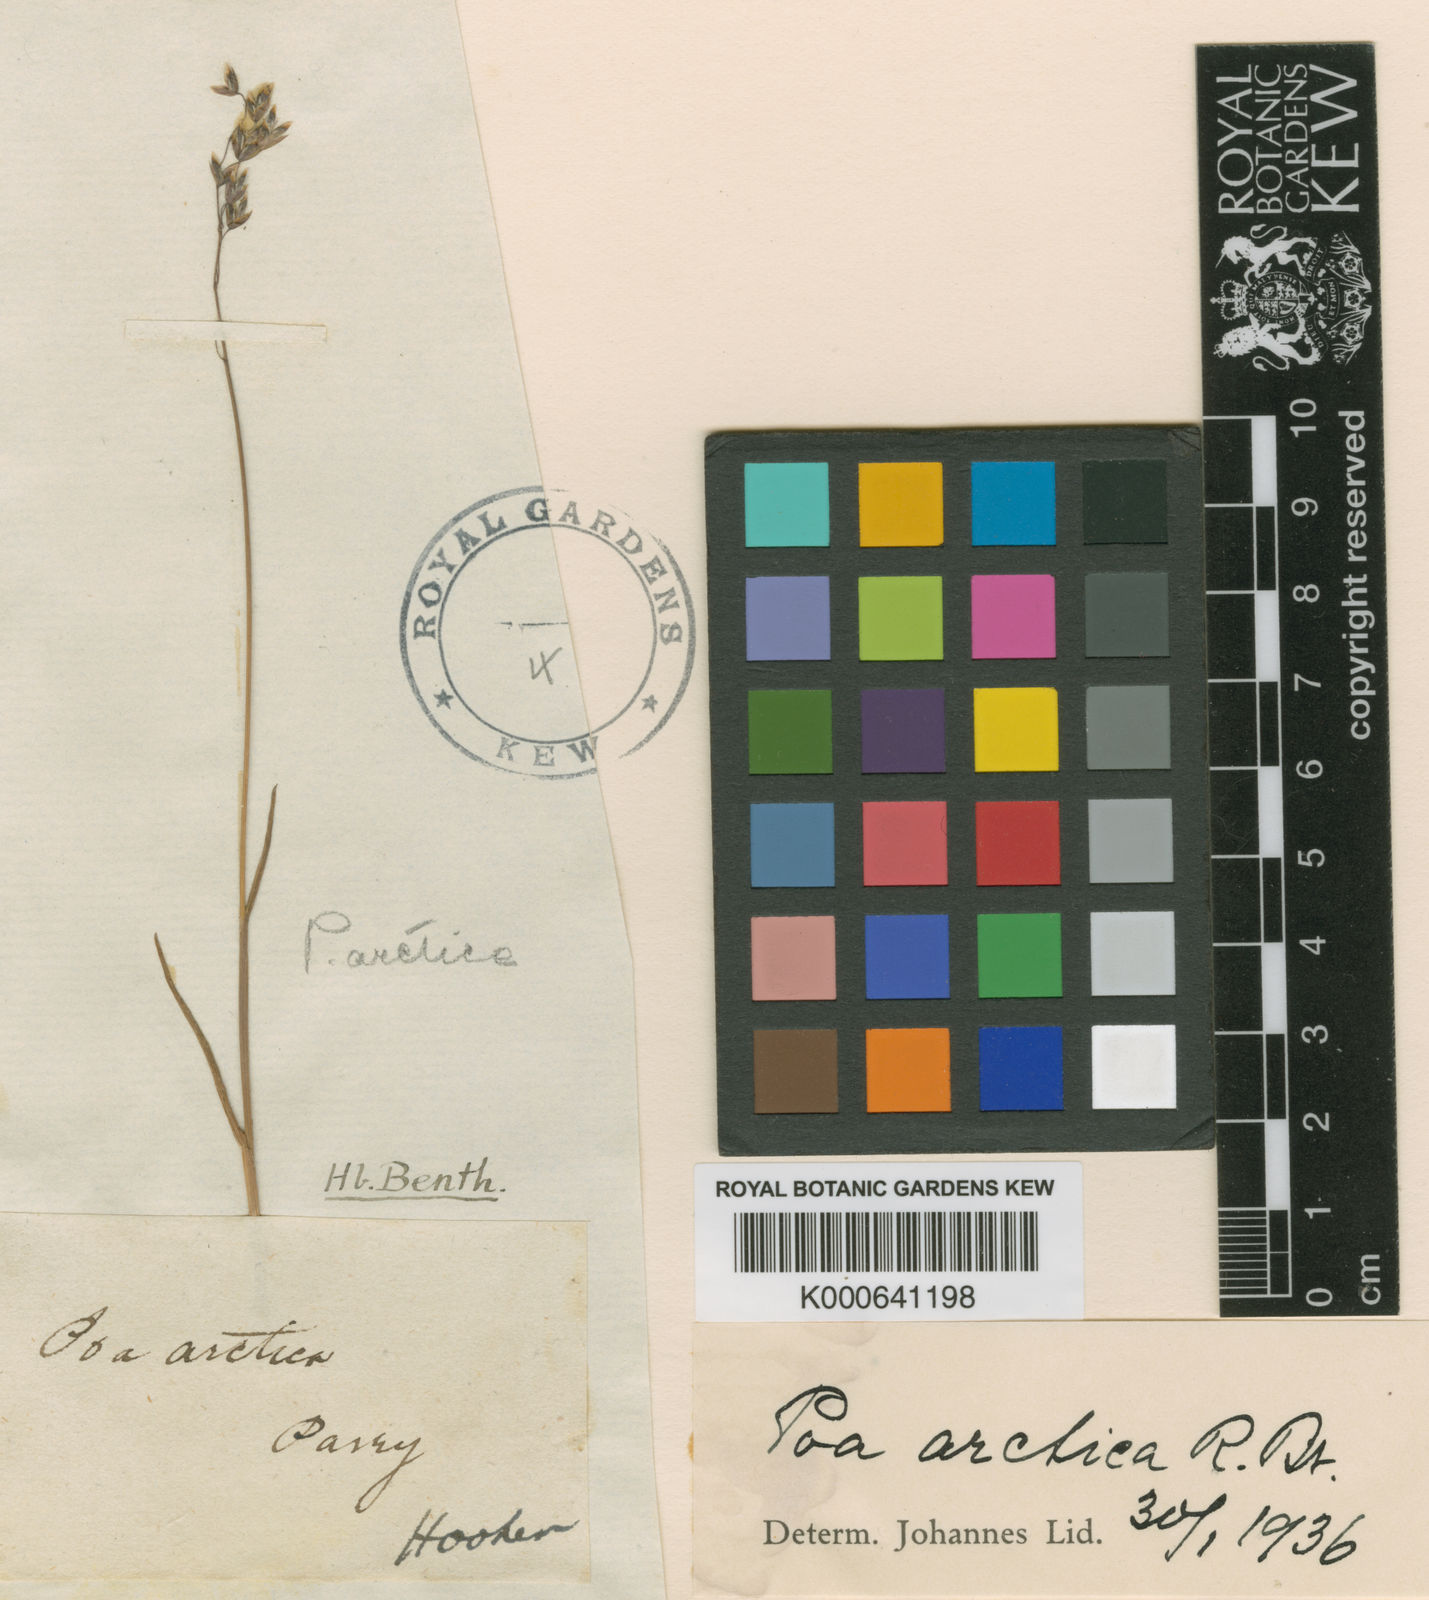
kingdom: Plantae
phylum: Tracheophyta
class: Liliopsida
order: Poales
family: Poaceae
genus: Poa
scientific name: Poa arctica
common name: Arctic bluegrass
